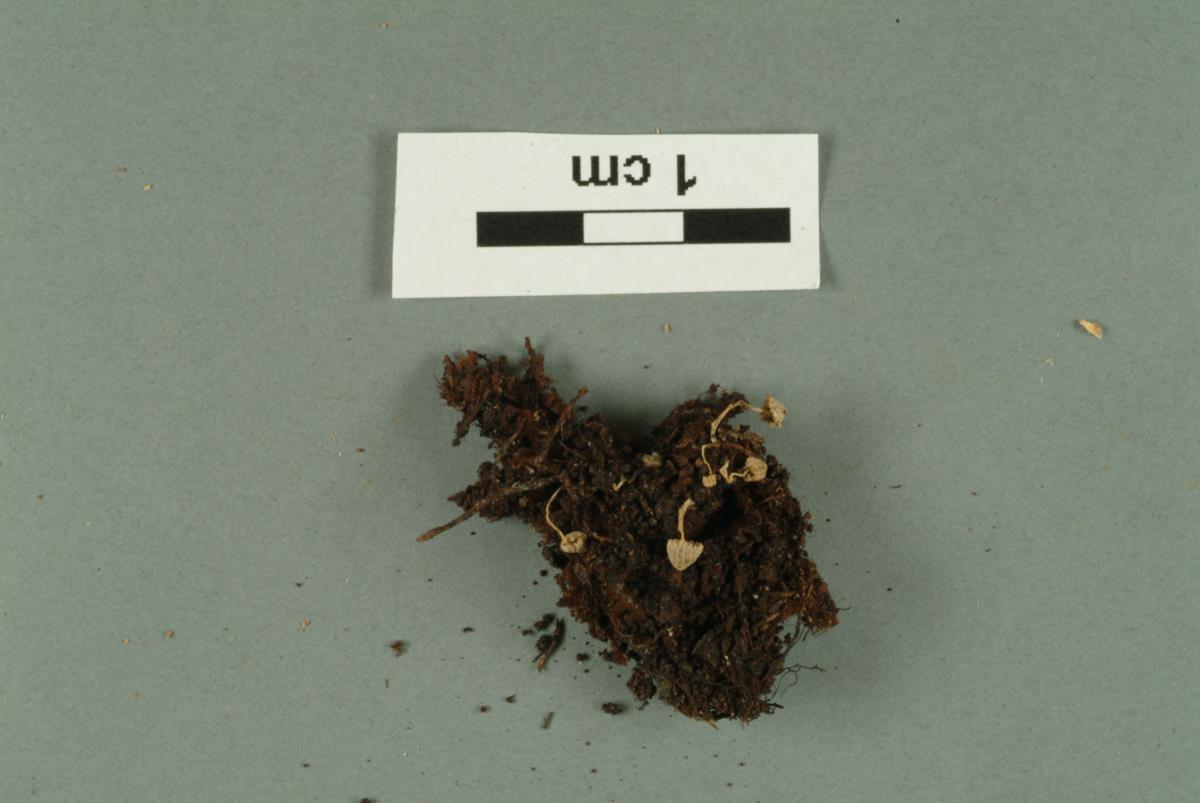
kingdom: Fungi
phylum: Ascomycota
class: Sordariomycetes
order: Hypocreales
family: Bionectriaceae
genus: Bionectria
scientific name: Bionectria
